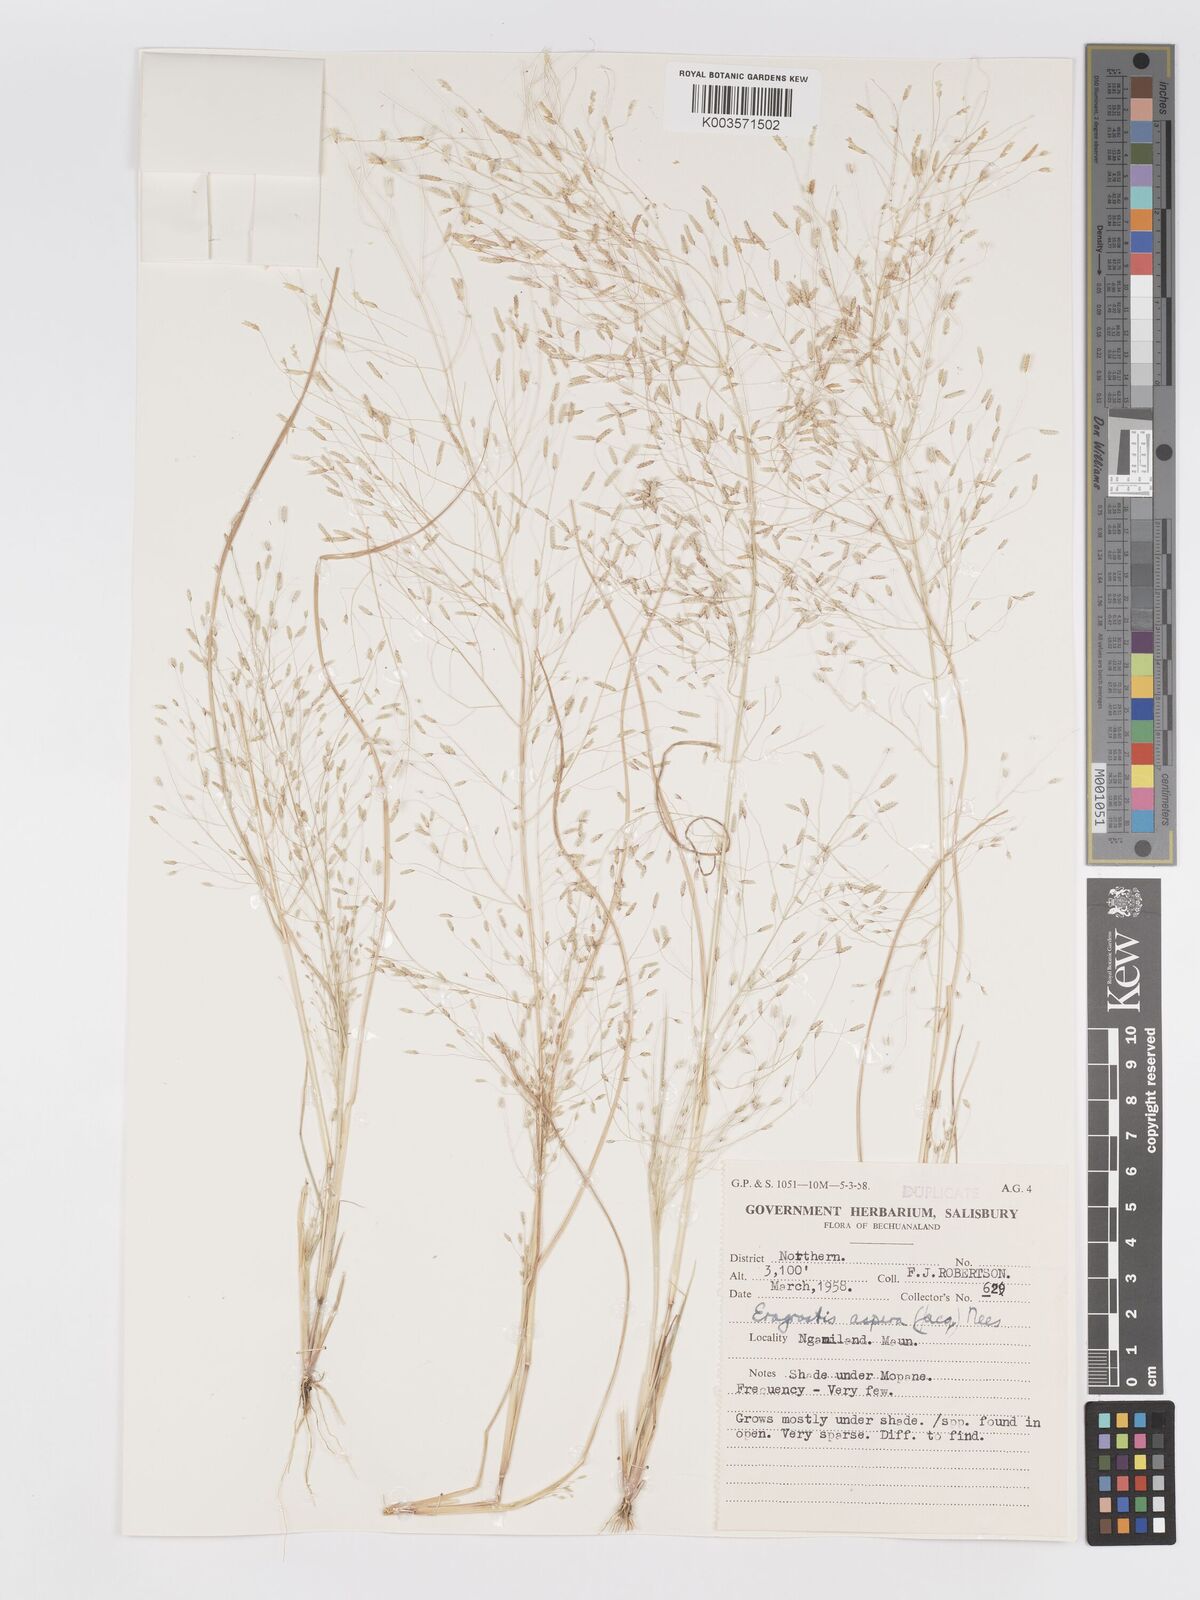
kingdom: Plantae
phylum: Tracheophyta
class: Liliopsida
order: Poales
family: Poaceae
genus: Eragrostis
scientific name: Eragrostis aspera
